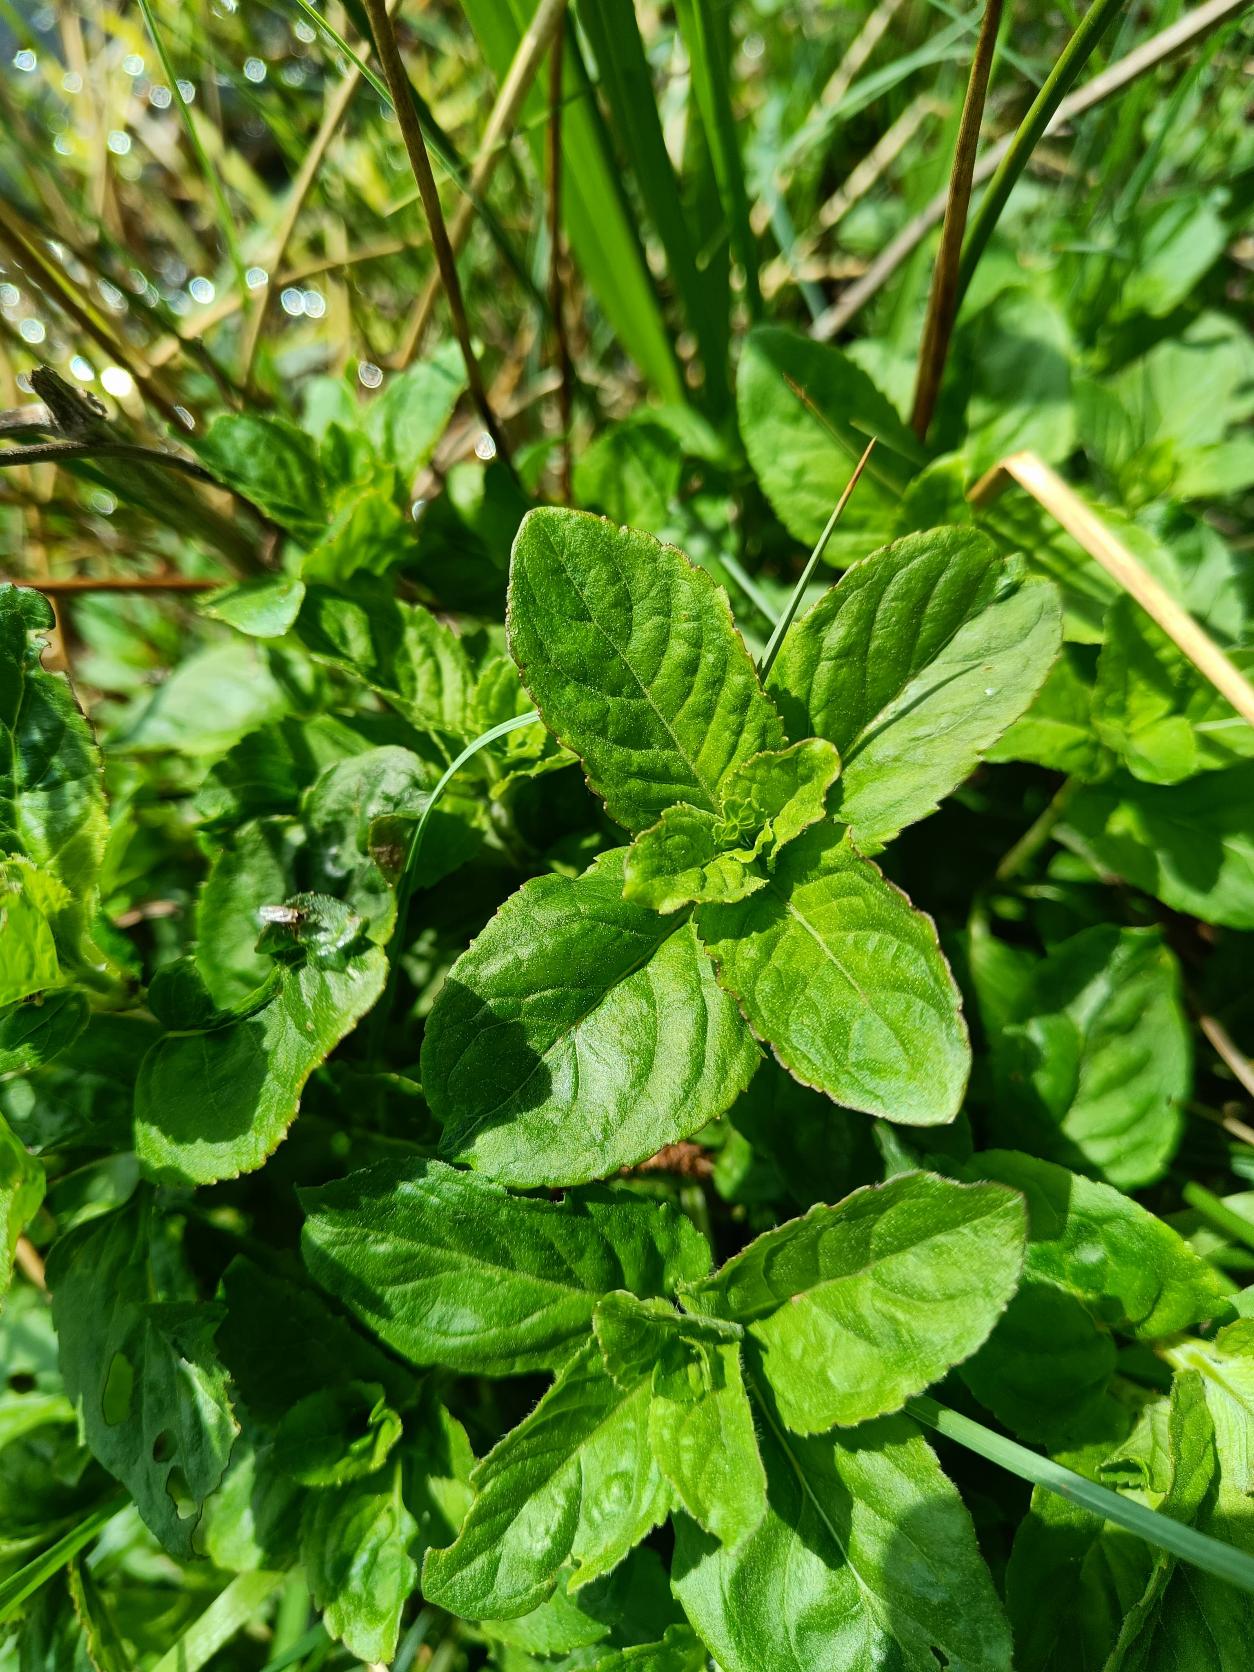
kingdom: Plantae
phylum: Tracheophyta
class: Magnoliopsida
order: Lamiales
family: Lamiaceae
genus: Mentha
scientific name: Mentha aquatica
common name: Vand-mynte
